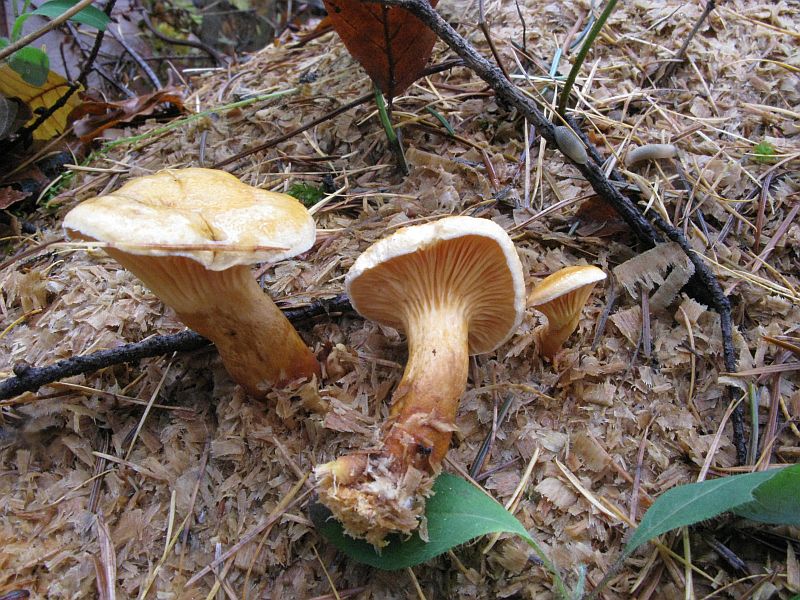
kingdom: Fungi
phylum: Basidiomycota
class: Agaricomycetes
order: Boletales
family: Hygrophoropsidaceae
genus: Hygrophoropsis
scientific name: Hygrophoropsis aurantiaca
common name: almindelig orangekantarel
